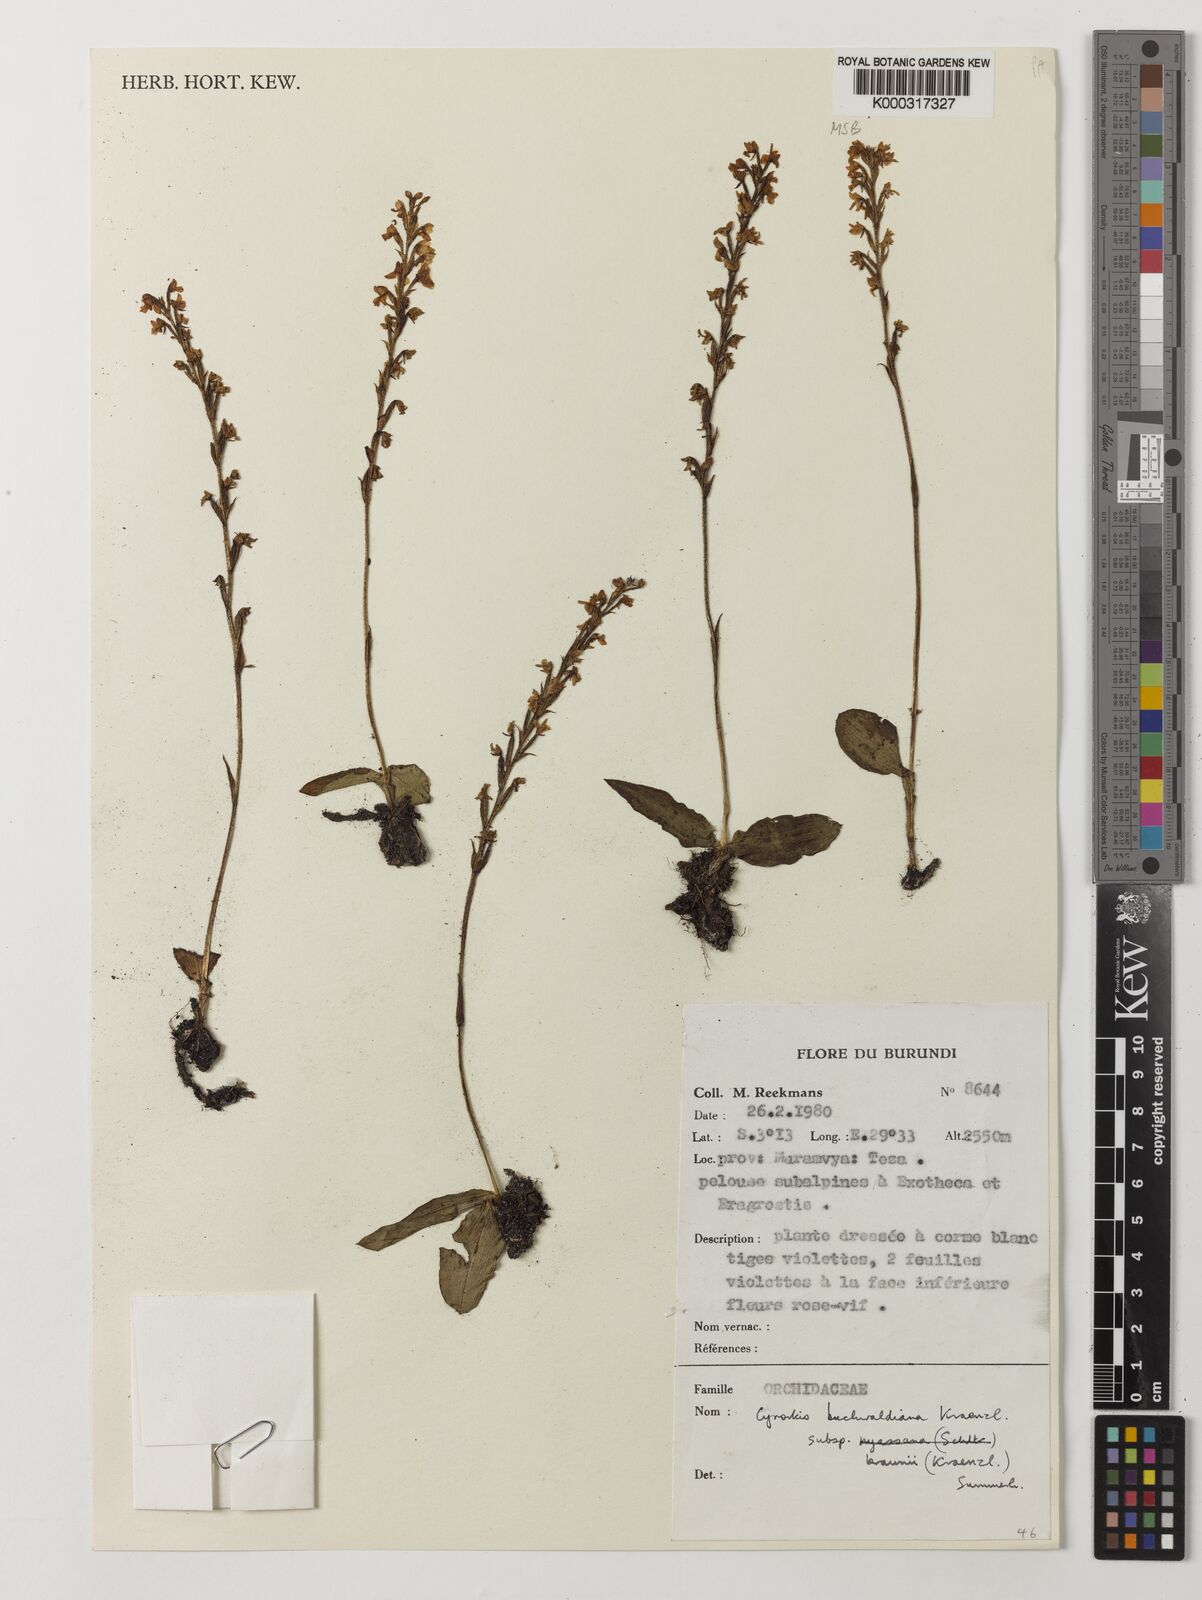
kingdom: Plantae
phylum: Tracheophyta
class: Liliopsida
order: Asparagales
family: Orchidaceae
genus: Cynorkis
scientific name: Cynorkis buchwaldiana
